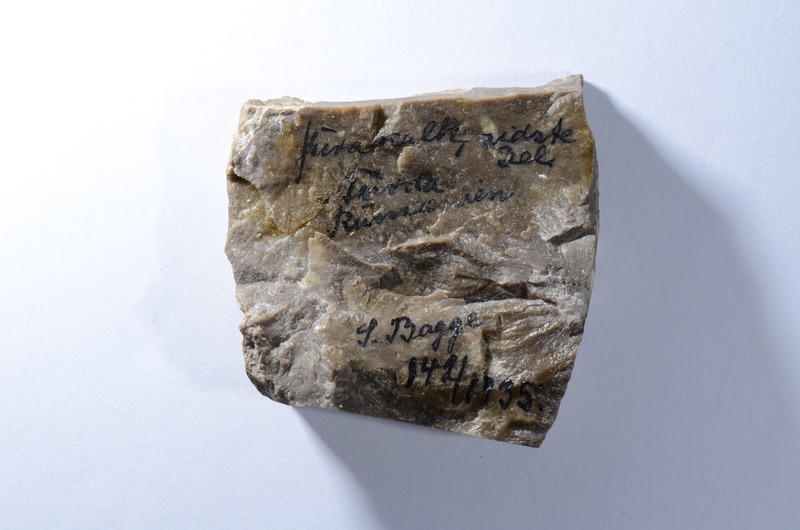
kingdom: Animalia
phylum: Chordata
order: Lepisosteiformes
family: Lepidotidae
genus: Lepidotes
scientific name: Lepidotes
